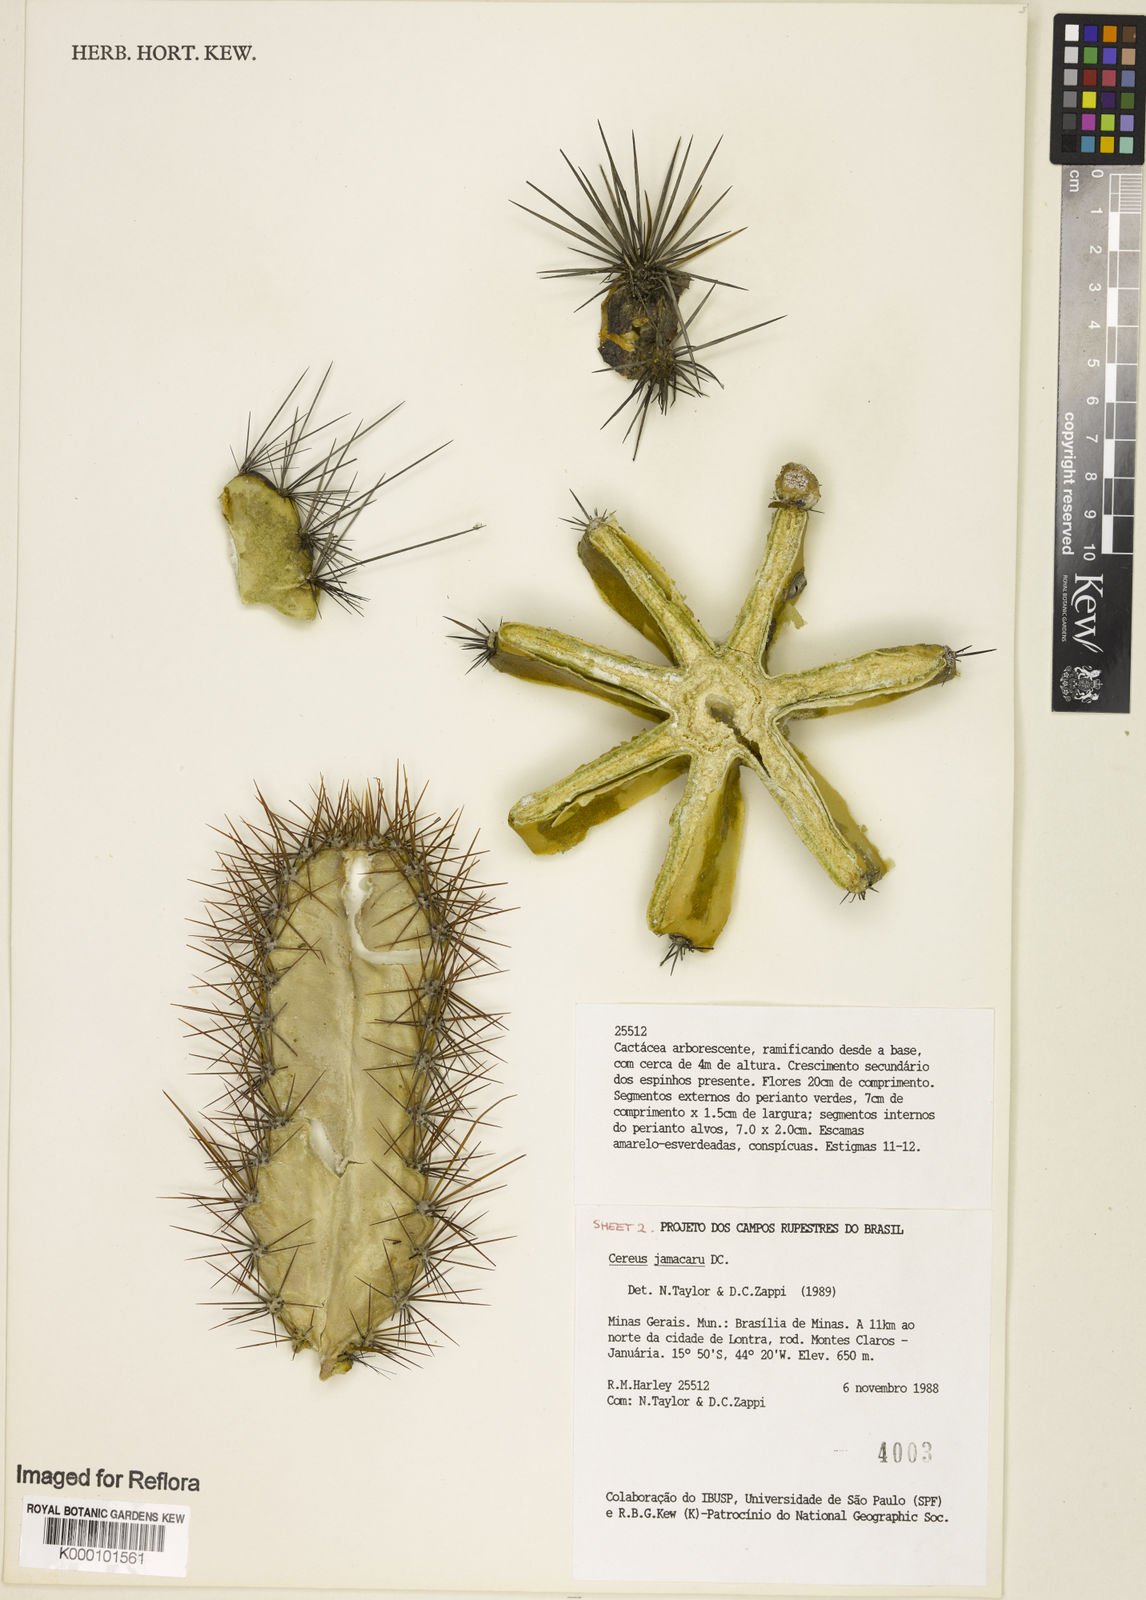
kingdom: Plantae
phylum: Tracheophyta
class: Magnoliopsida
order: Caryophyllales
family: Cactaceae
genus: Cereus
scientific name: Cereus jamacaru
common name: Queen-of-the-night
